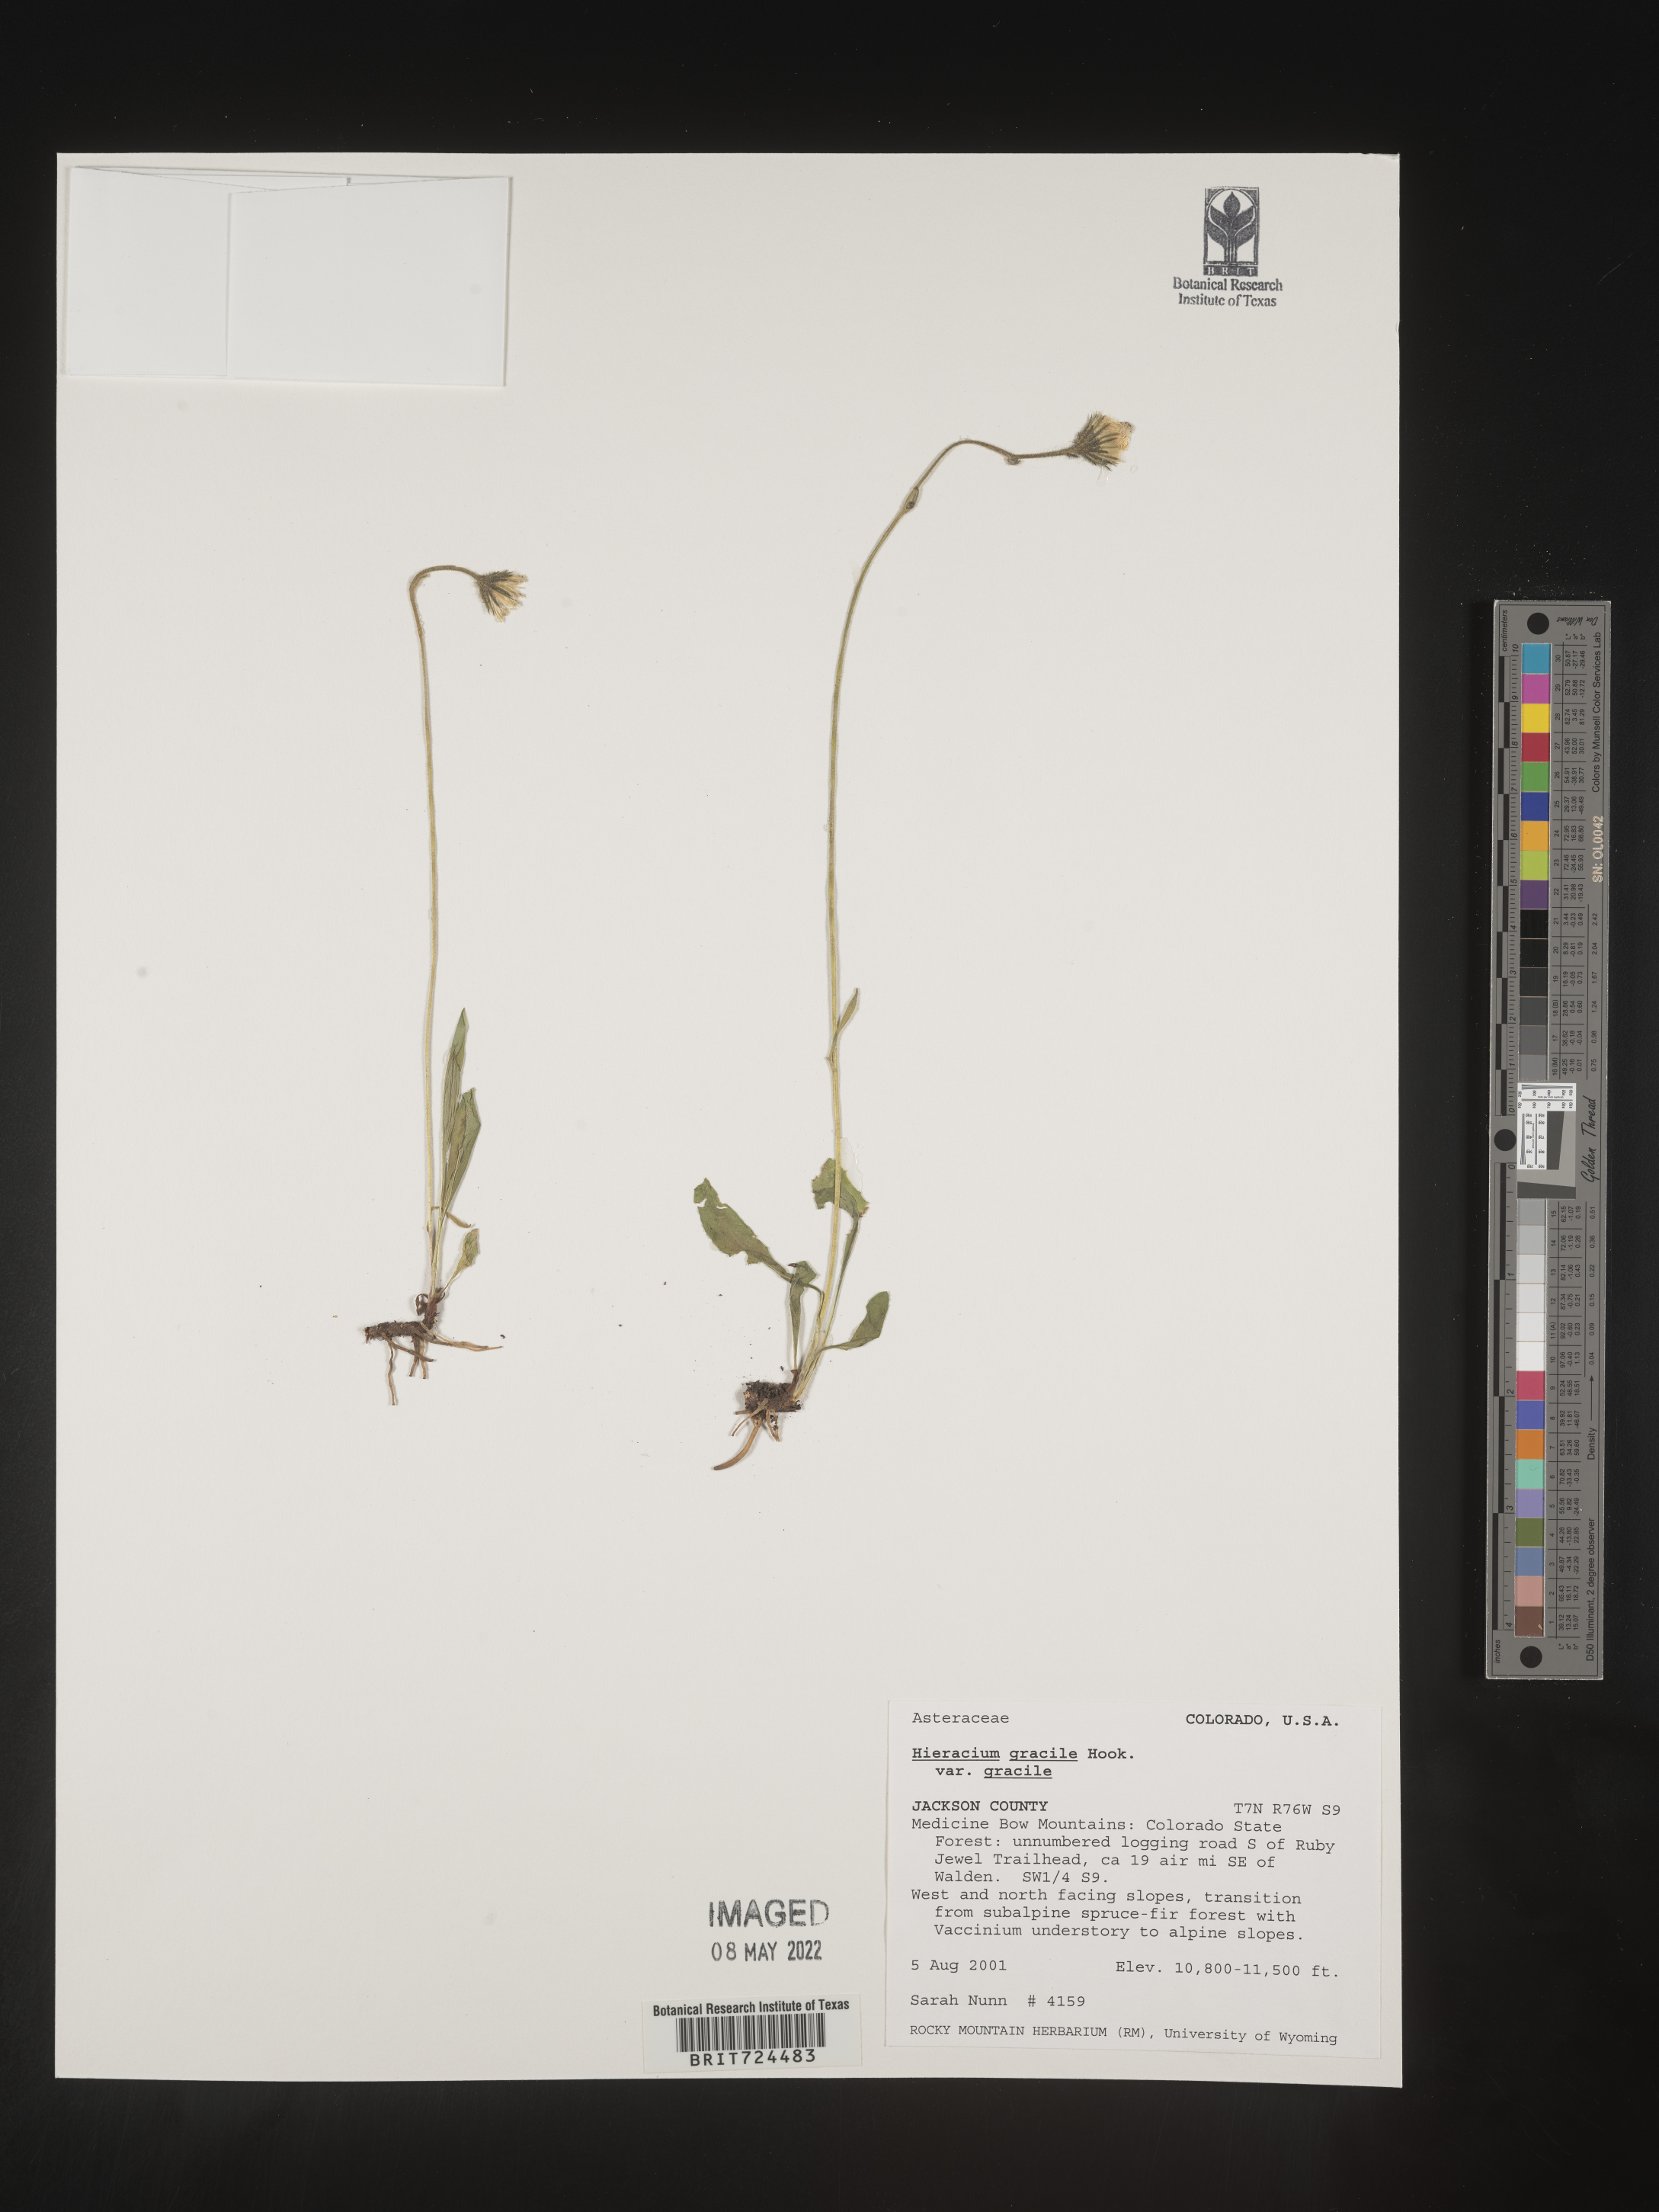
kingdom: Plantae
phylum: Tracheophyta
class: Magnoliopsida
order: Asterales
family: Asteraceae
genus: Hieracium
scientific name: Hieracium
